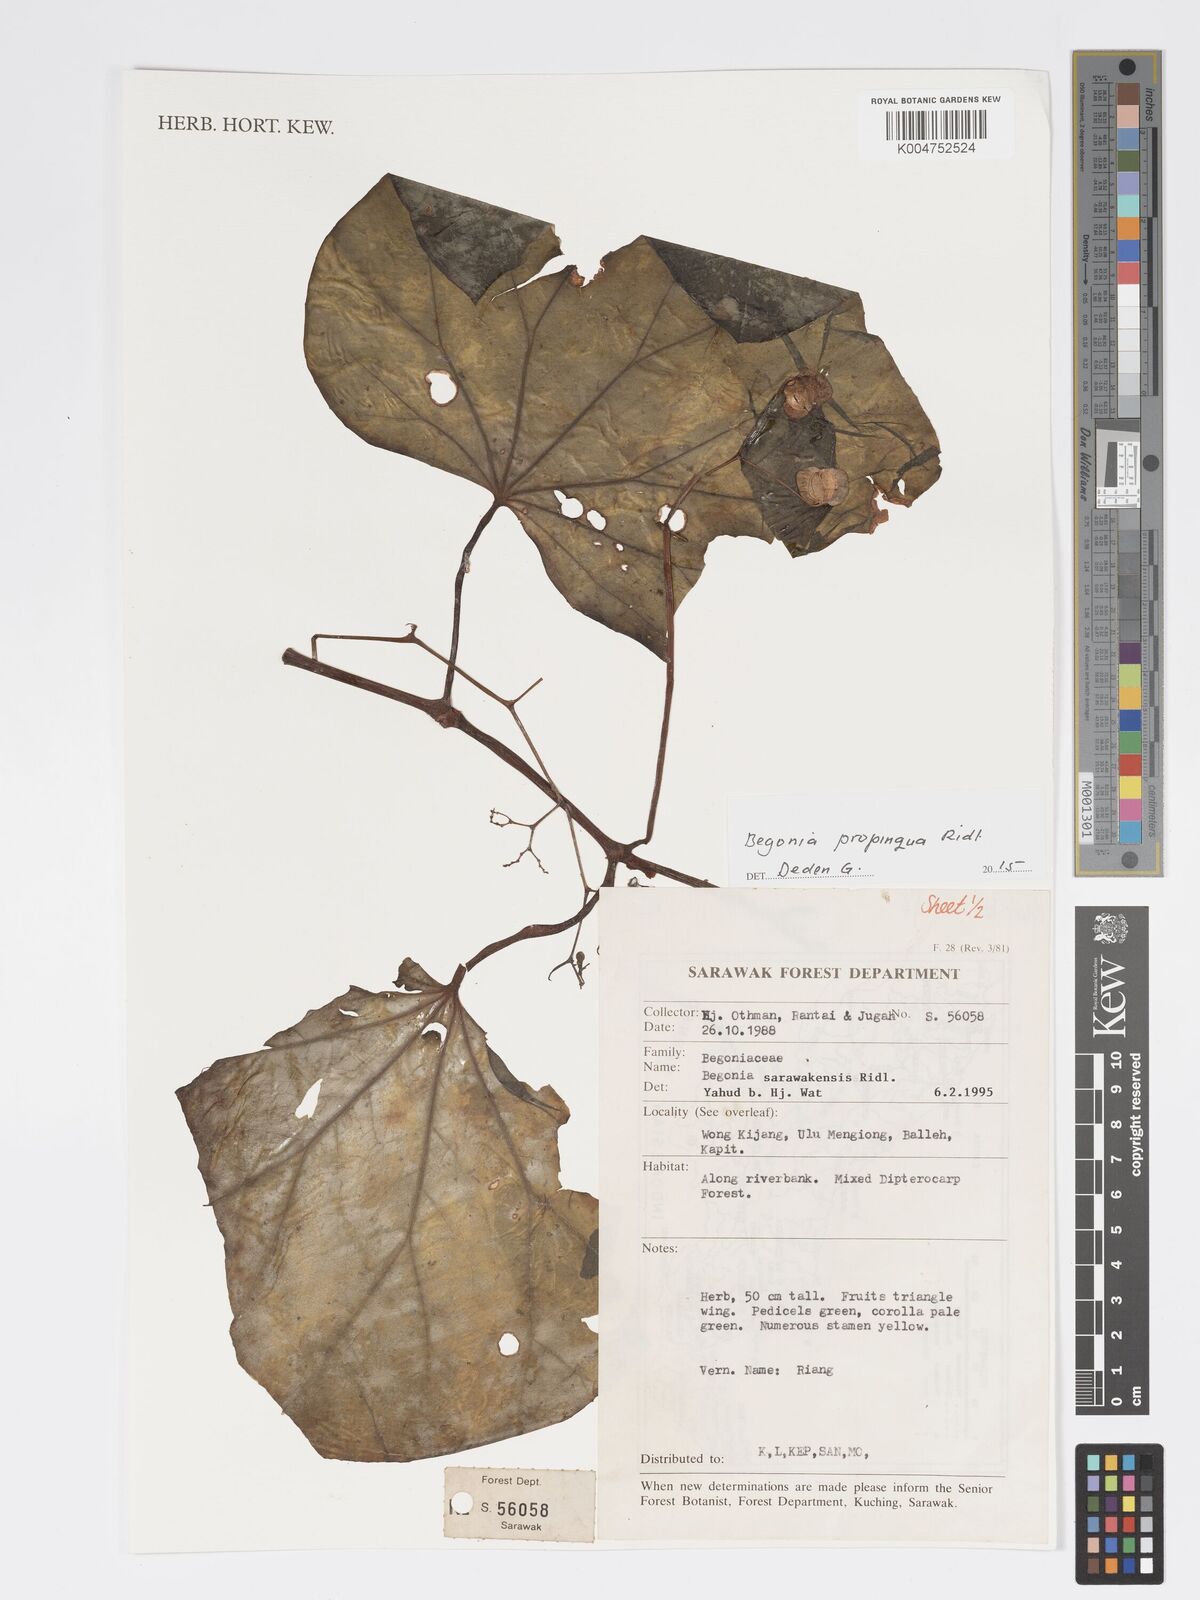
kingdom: Plantae
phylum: Tracheophyta
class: Magnoliopsida
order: Cucurbitales
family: Begoniaceae
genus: Begonia
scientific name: Begonia propinqua
